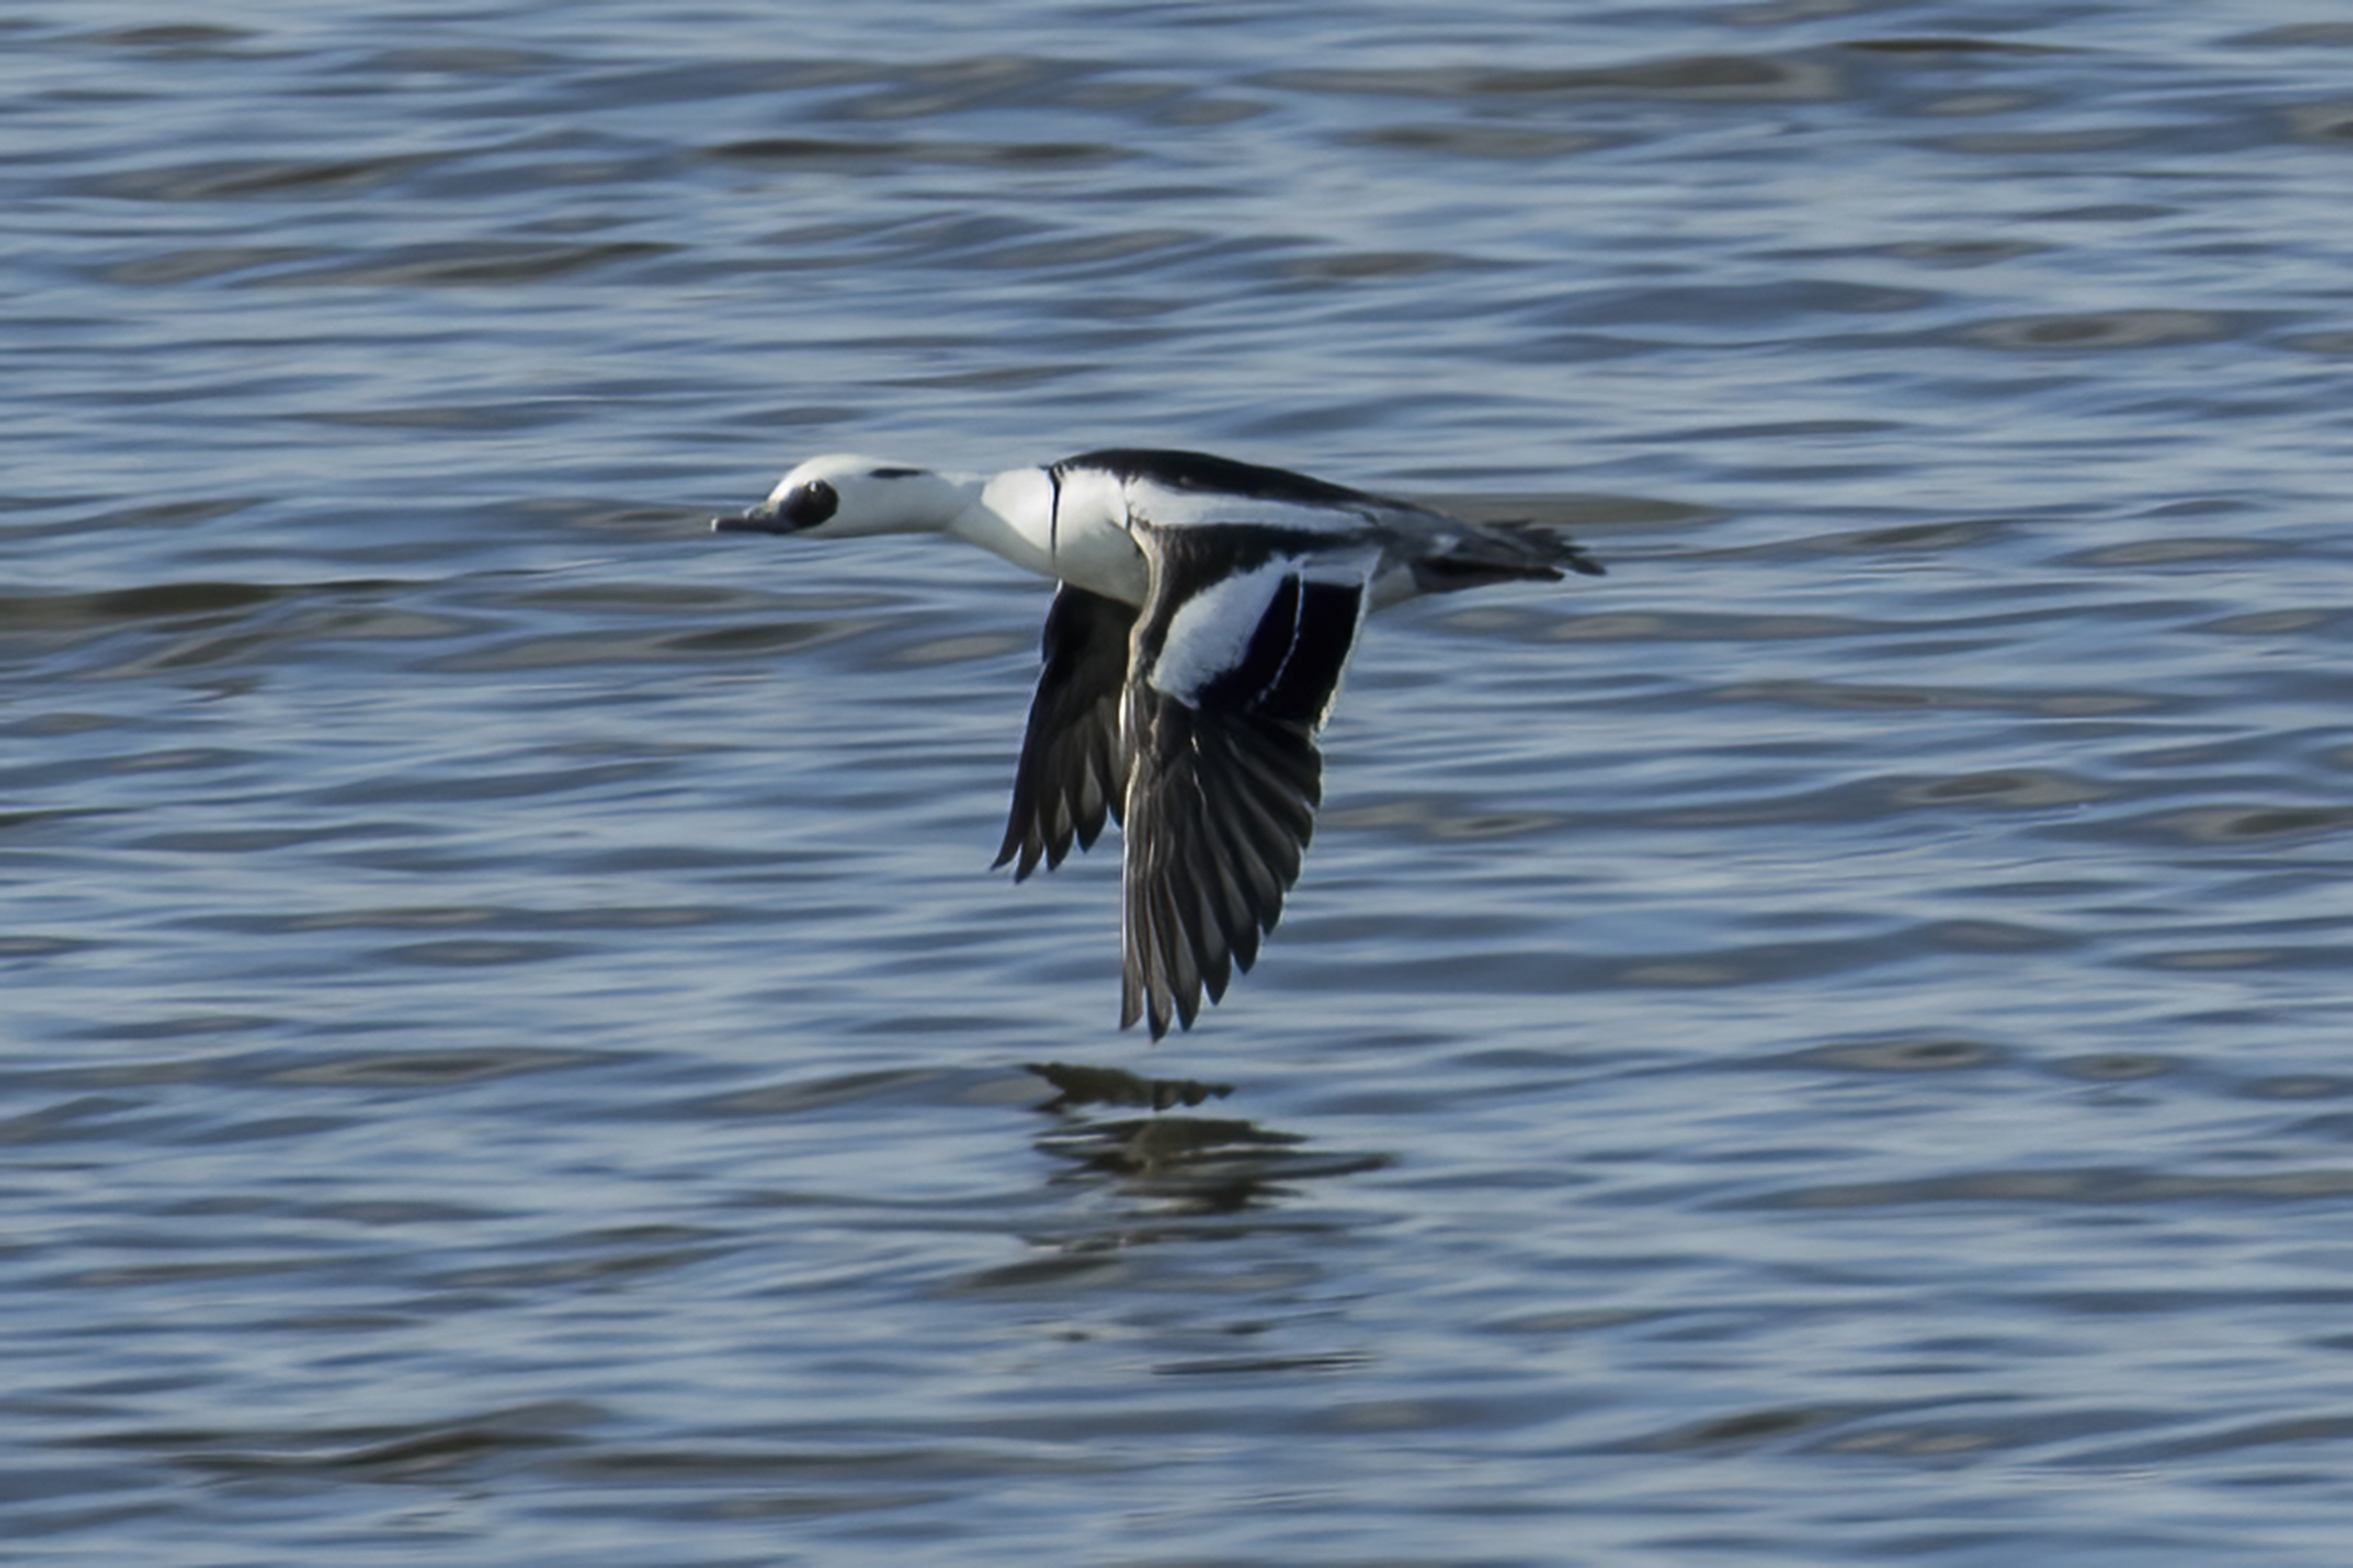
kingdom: Animalia
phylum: Chordata
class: Aves
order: Anseriformes
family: Anatidae
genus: Mergellus
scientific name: Mergellus albellus
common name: Lille skallesluger
